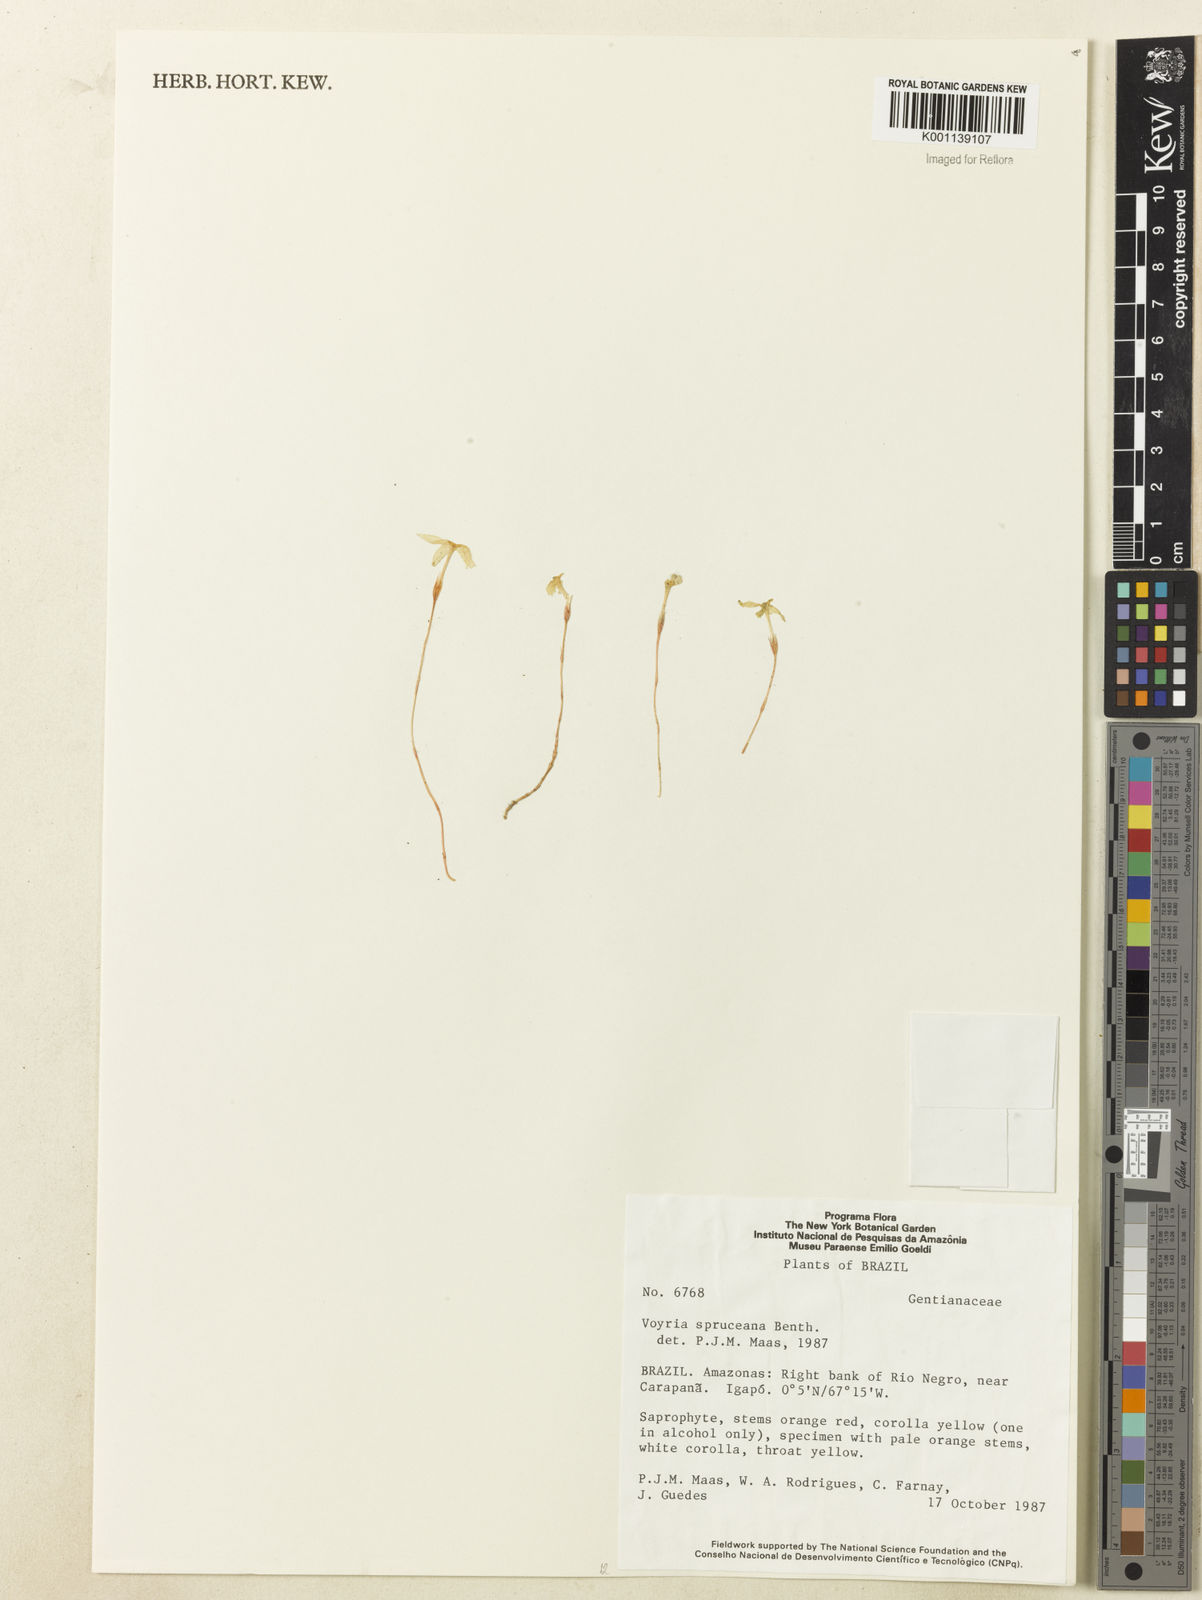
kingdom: Plantae
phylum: Tracheophyta
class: Magnoliopsida
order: Gentianales
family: Gentianaceae
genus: Voyria
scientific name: Voyria spruceana
